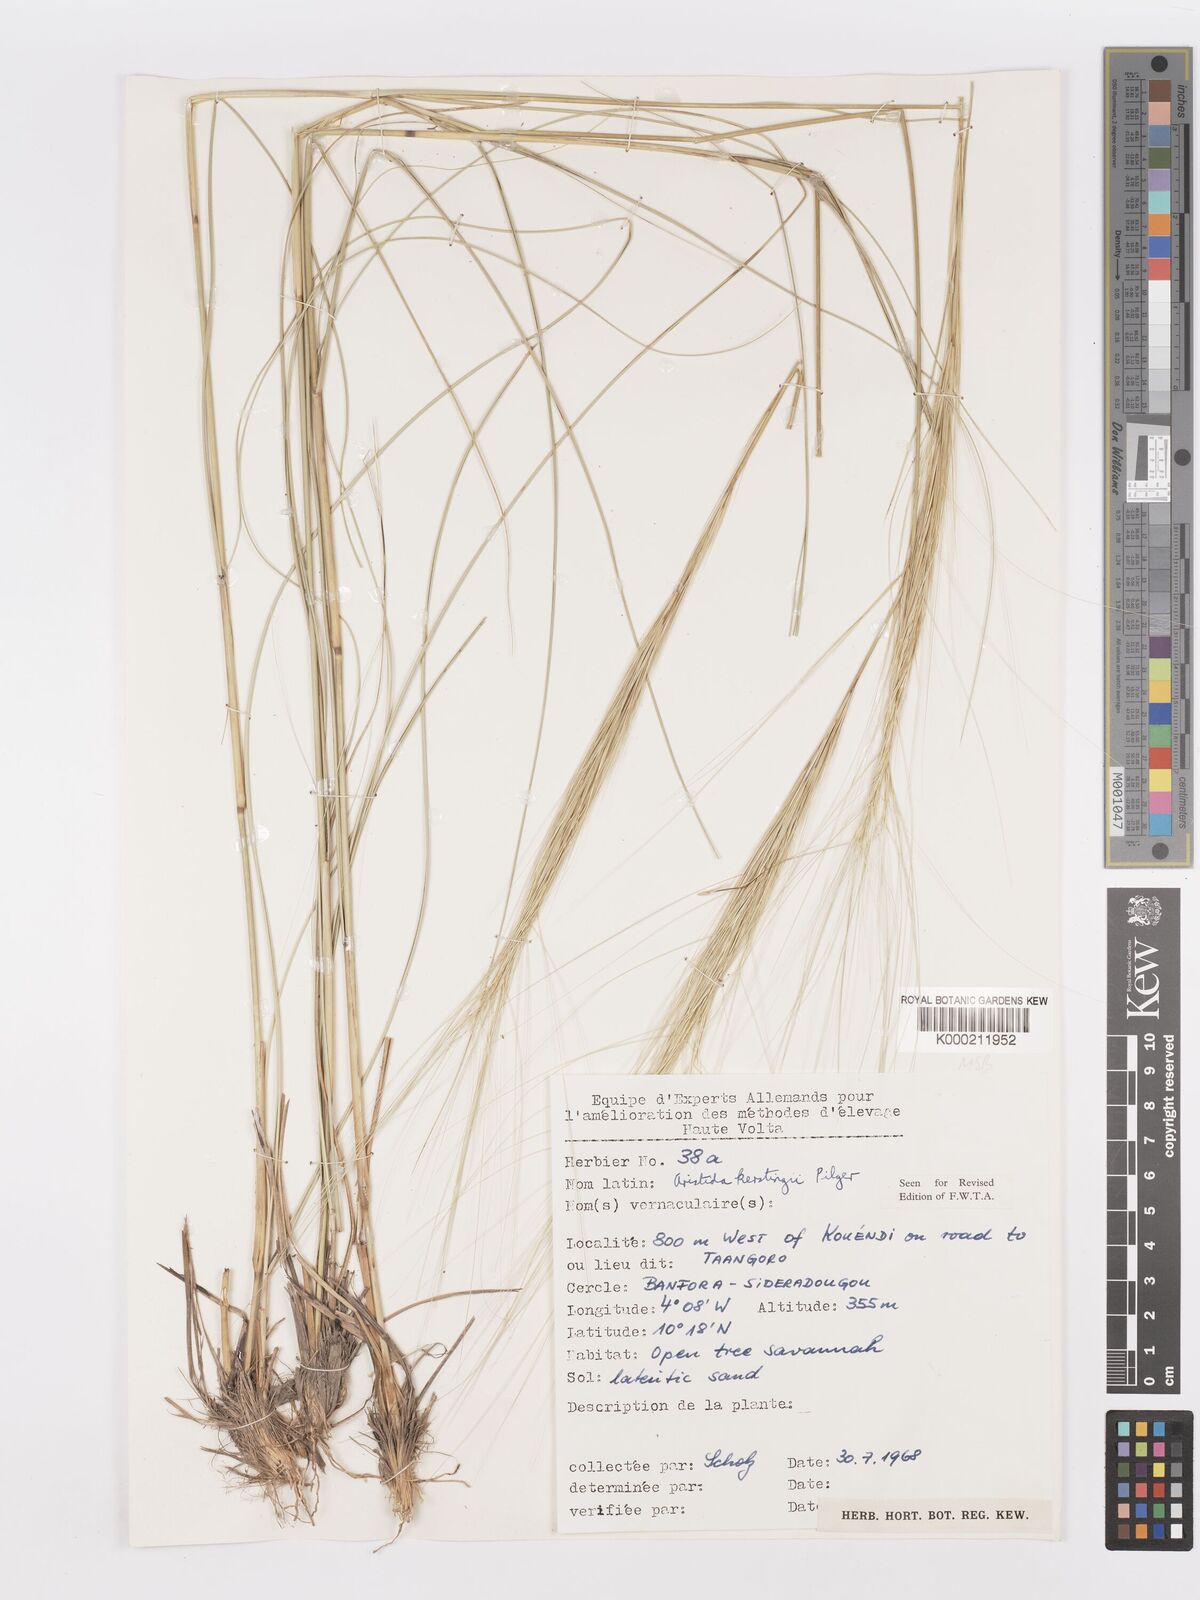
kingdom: Plantae
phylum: Tracheophyta
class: Liliopsida
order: Poales
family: Poaceae
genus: Aristida
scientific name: Aristida kerstingii
